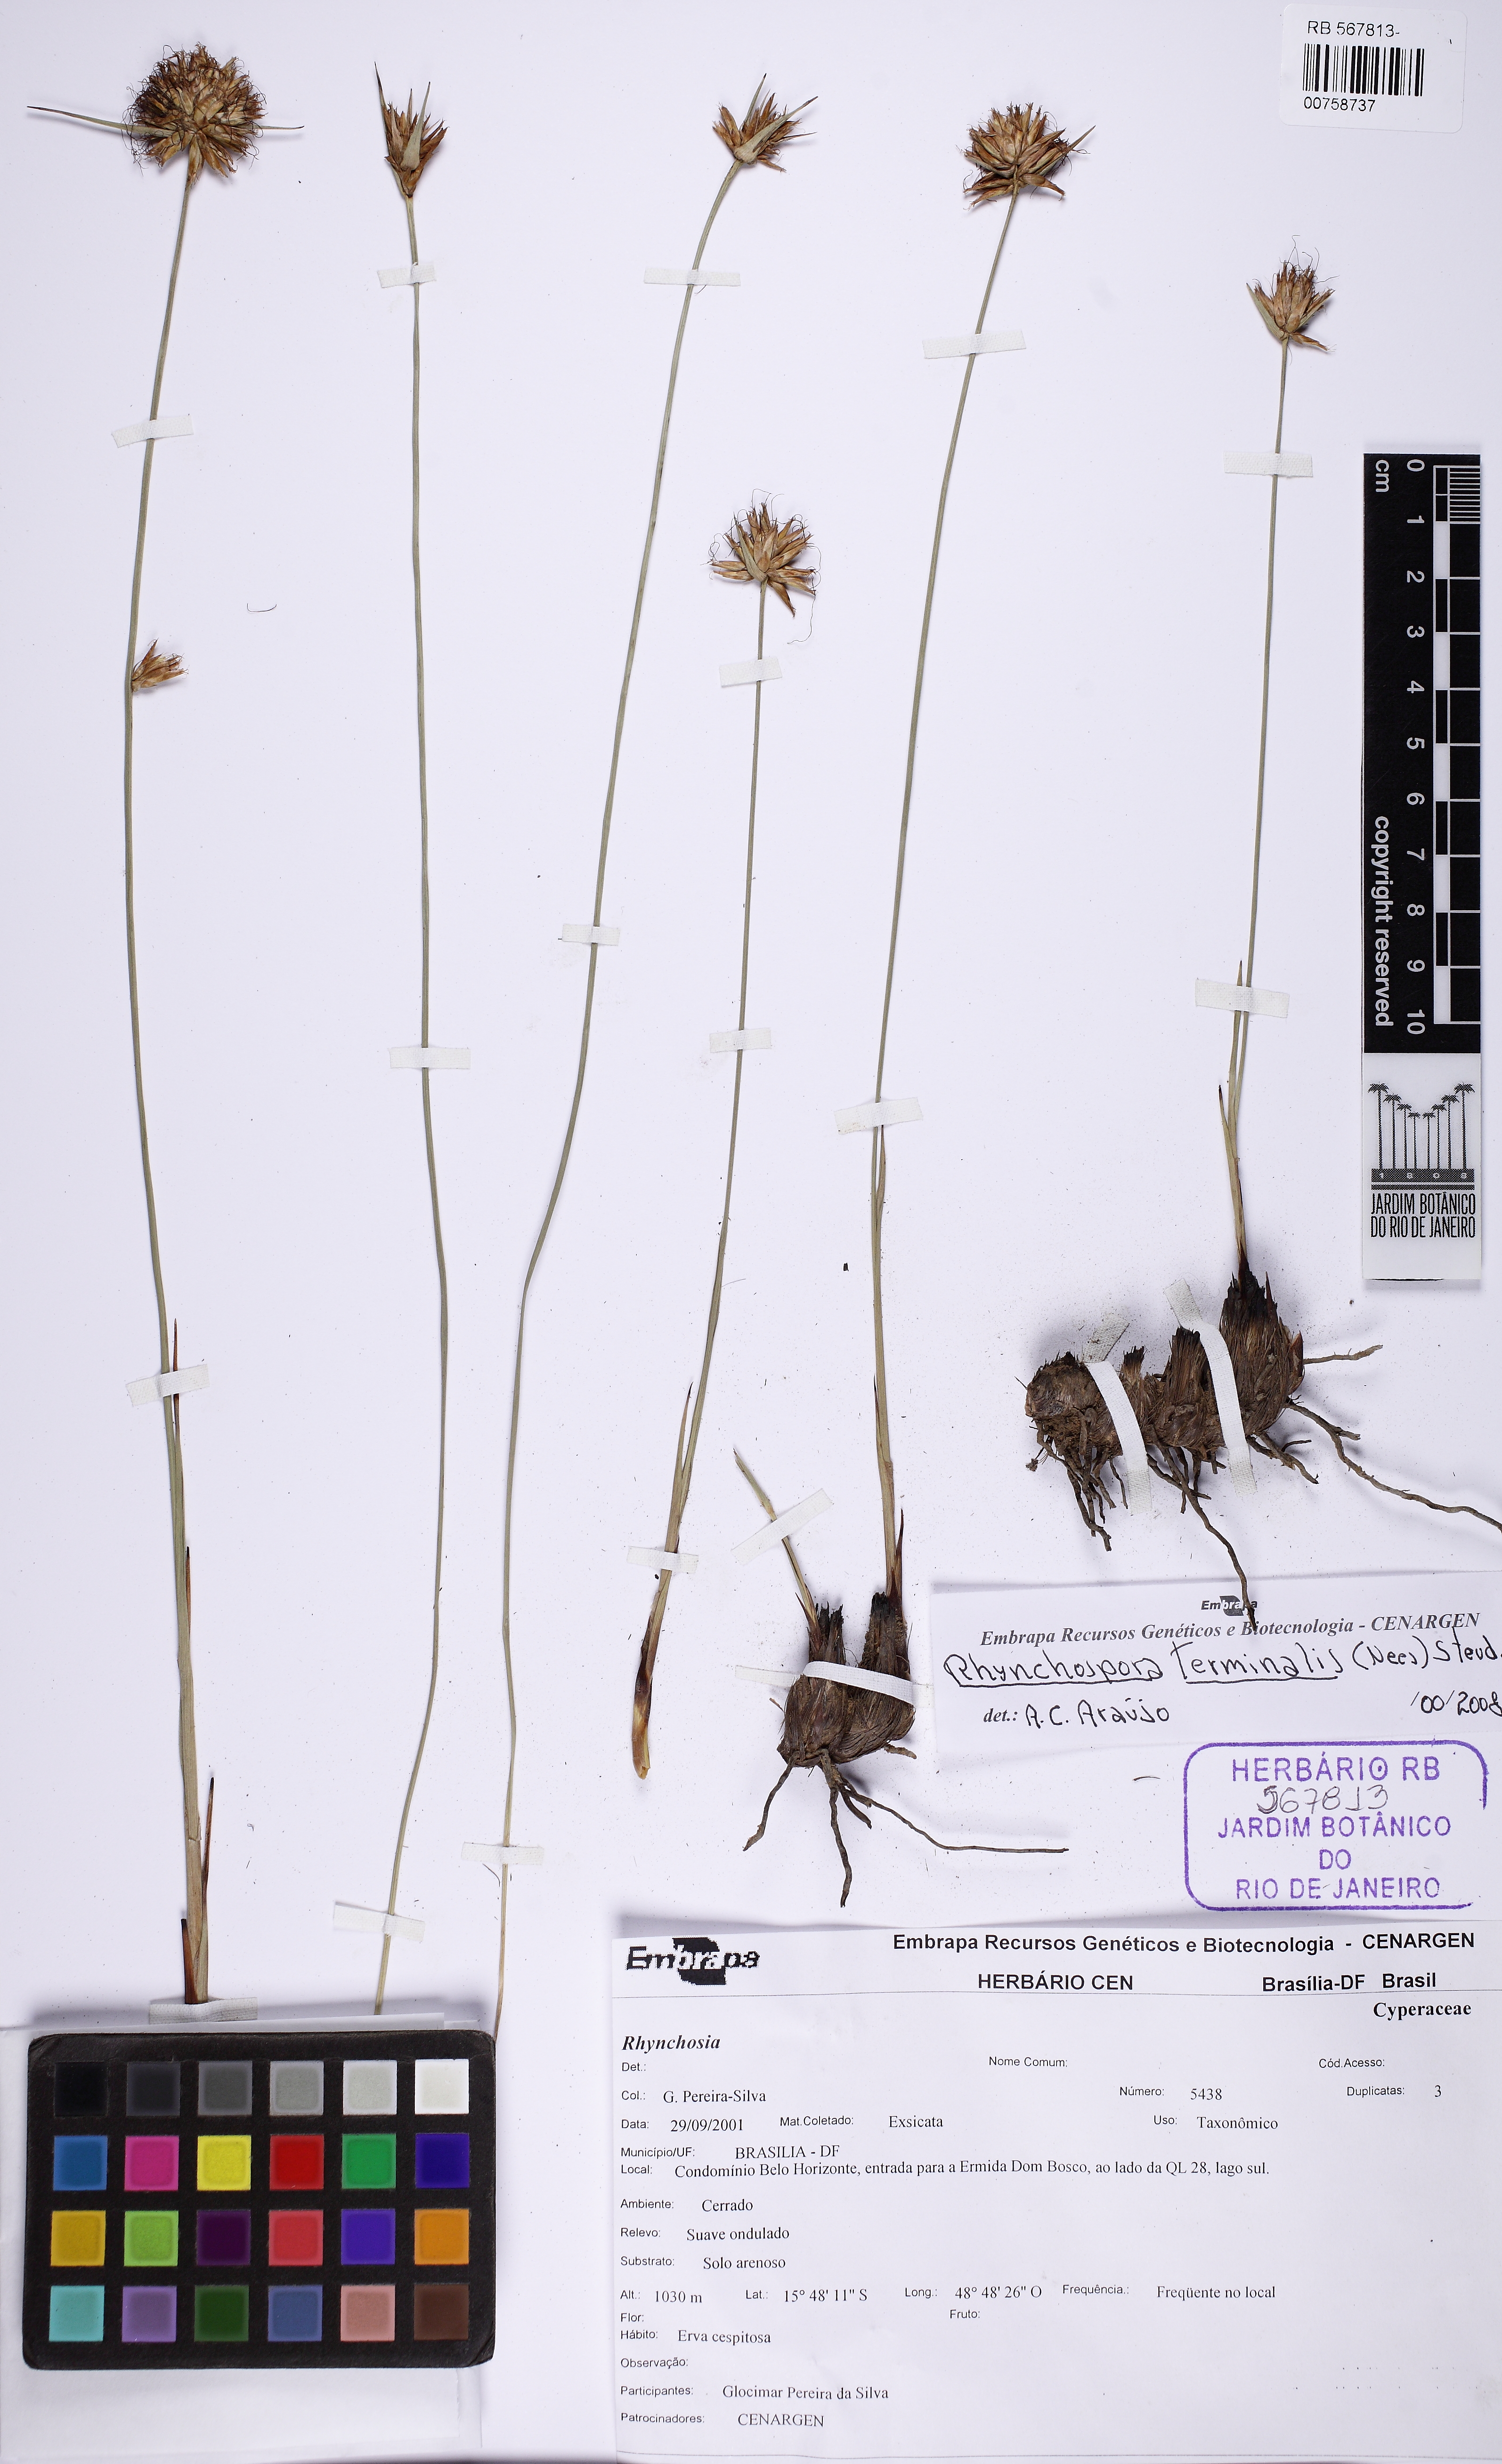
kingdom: Plantae
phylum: Tracheophyta
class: Liliopsida
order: Poales
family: Cyperaceae
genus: Rhynchospora
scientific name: Rhynchospora terminalis
